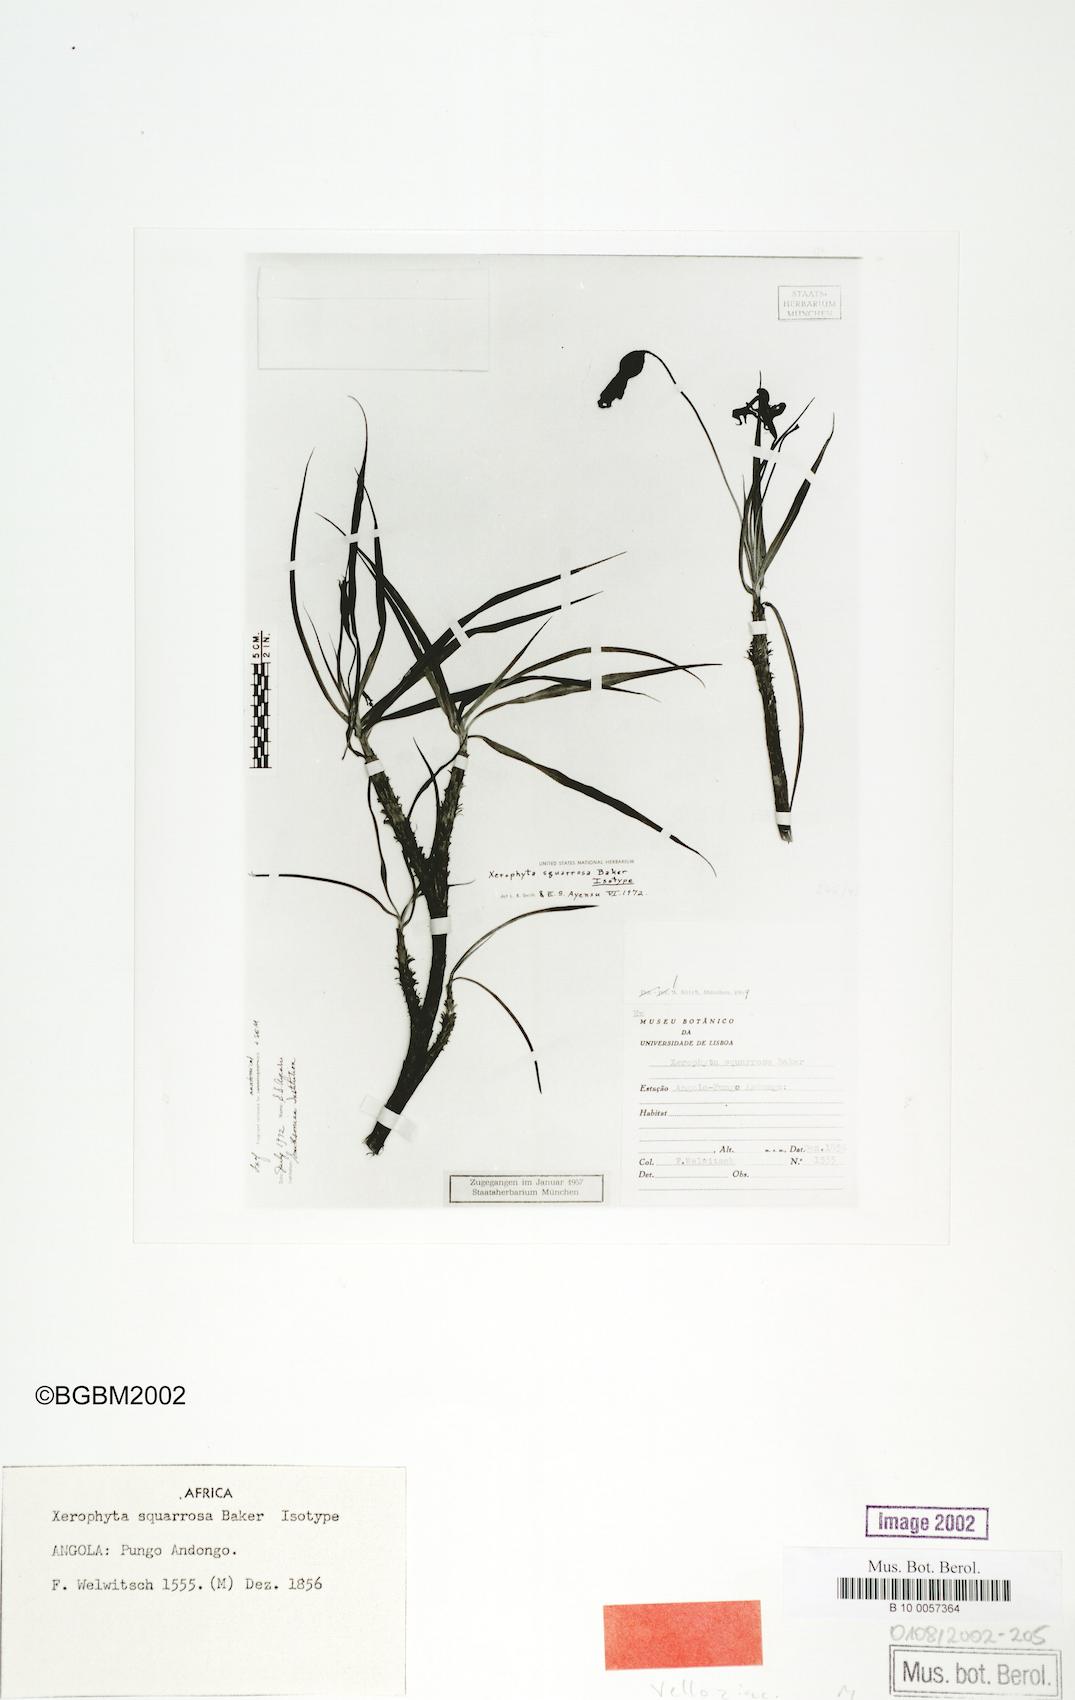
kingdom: Plantae
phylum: Tracheophyta
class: Liliopsida
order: Pandanales
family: Velloziaceae
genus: Xerophyta
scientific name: Xerophyta squarrosa
